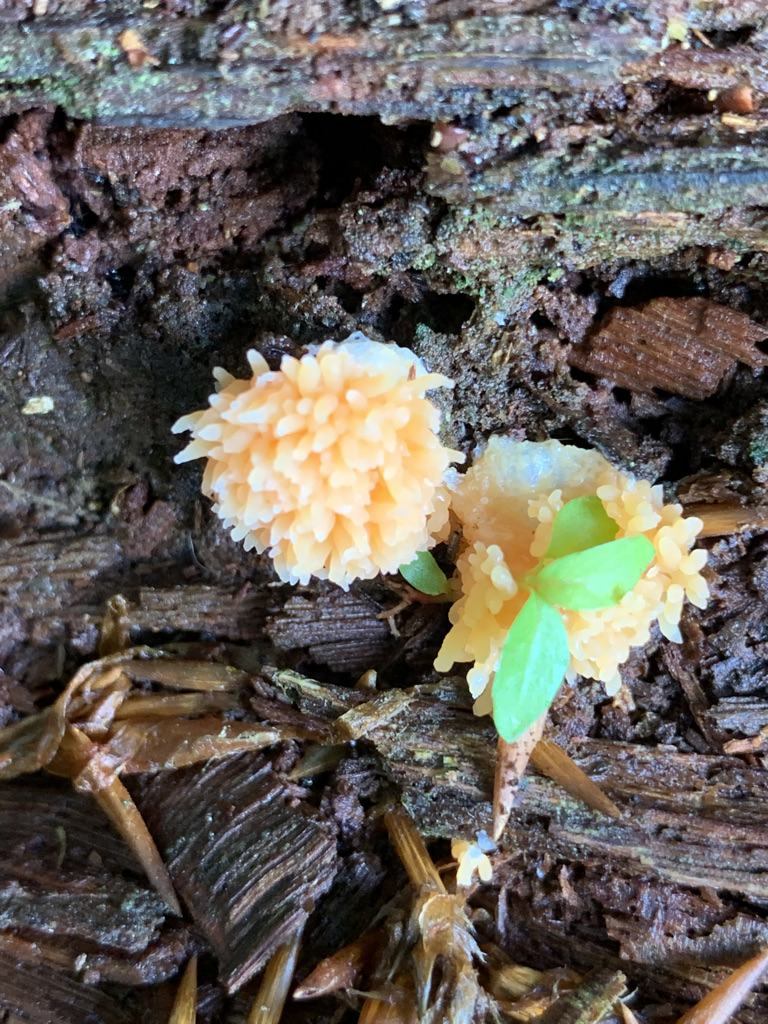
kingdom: Protozoa
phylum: Mycetozoa
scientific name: Mycetozoa
